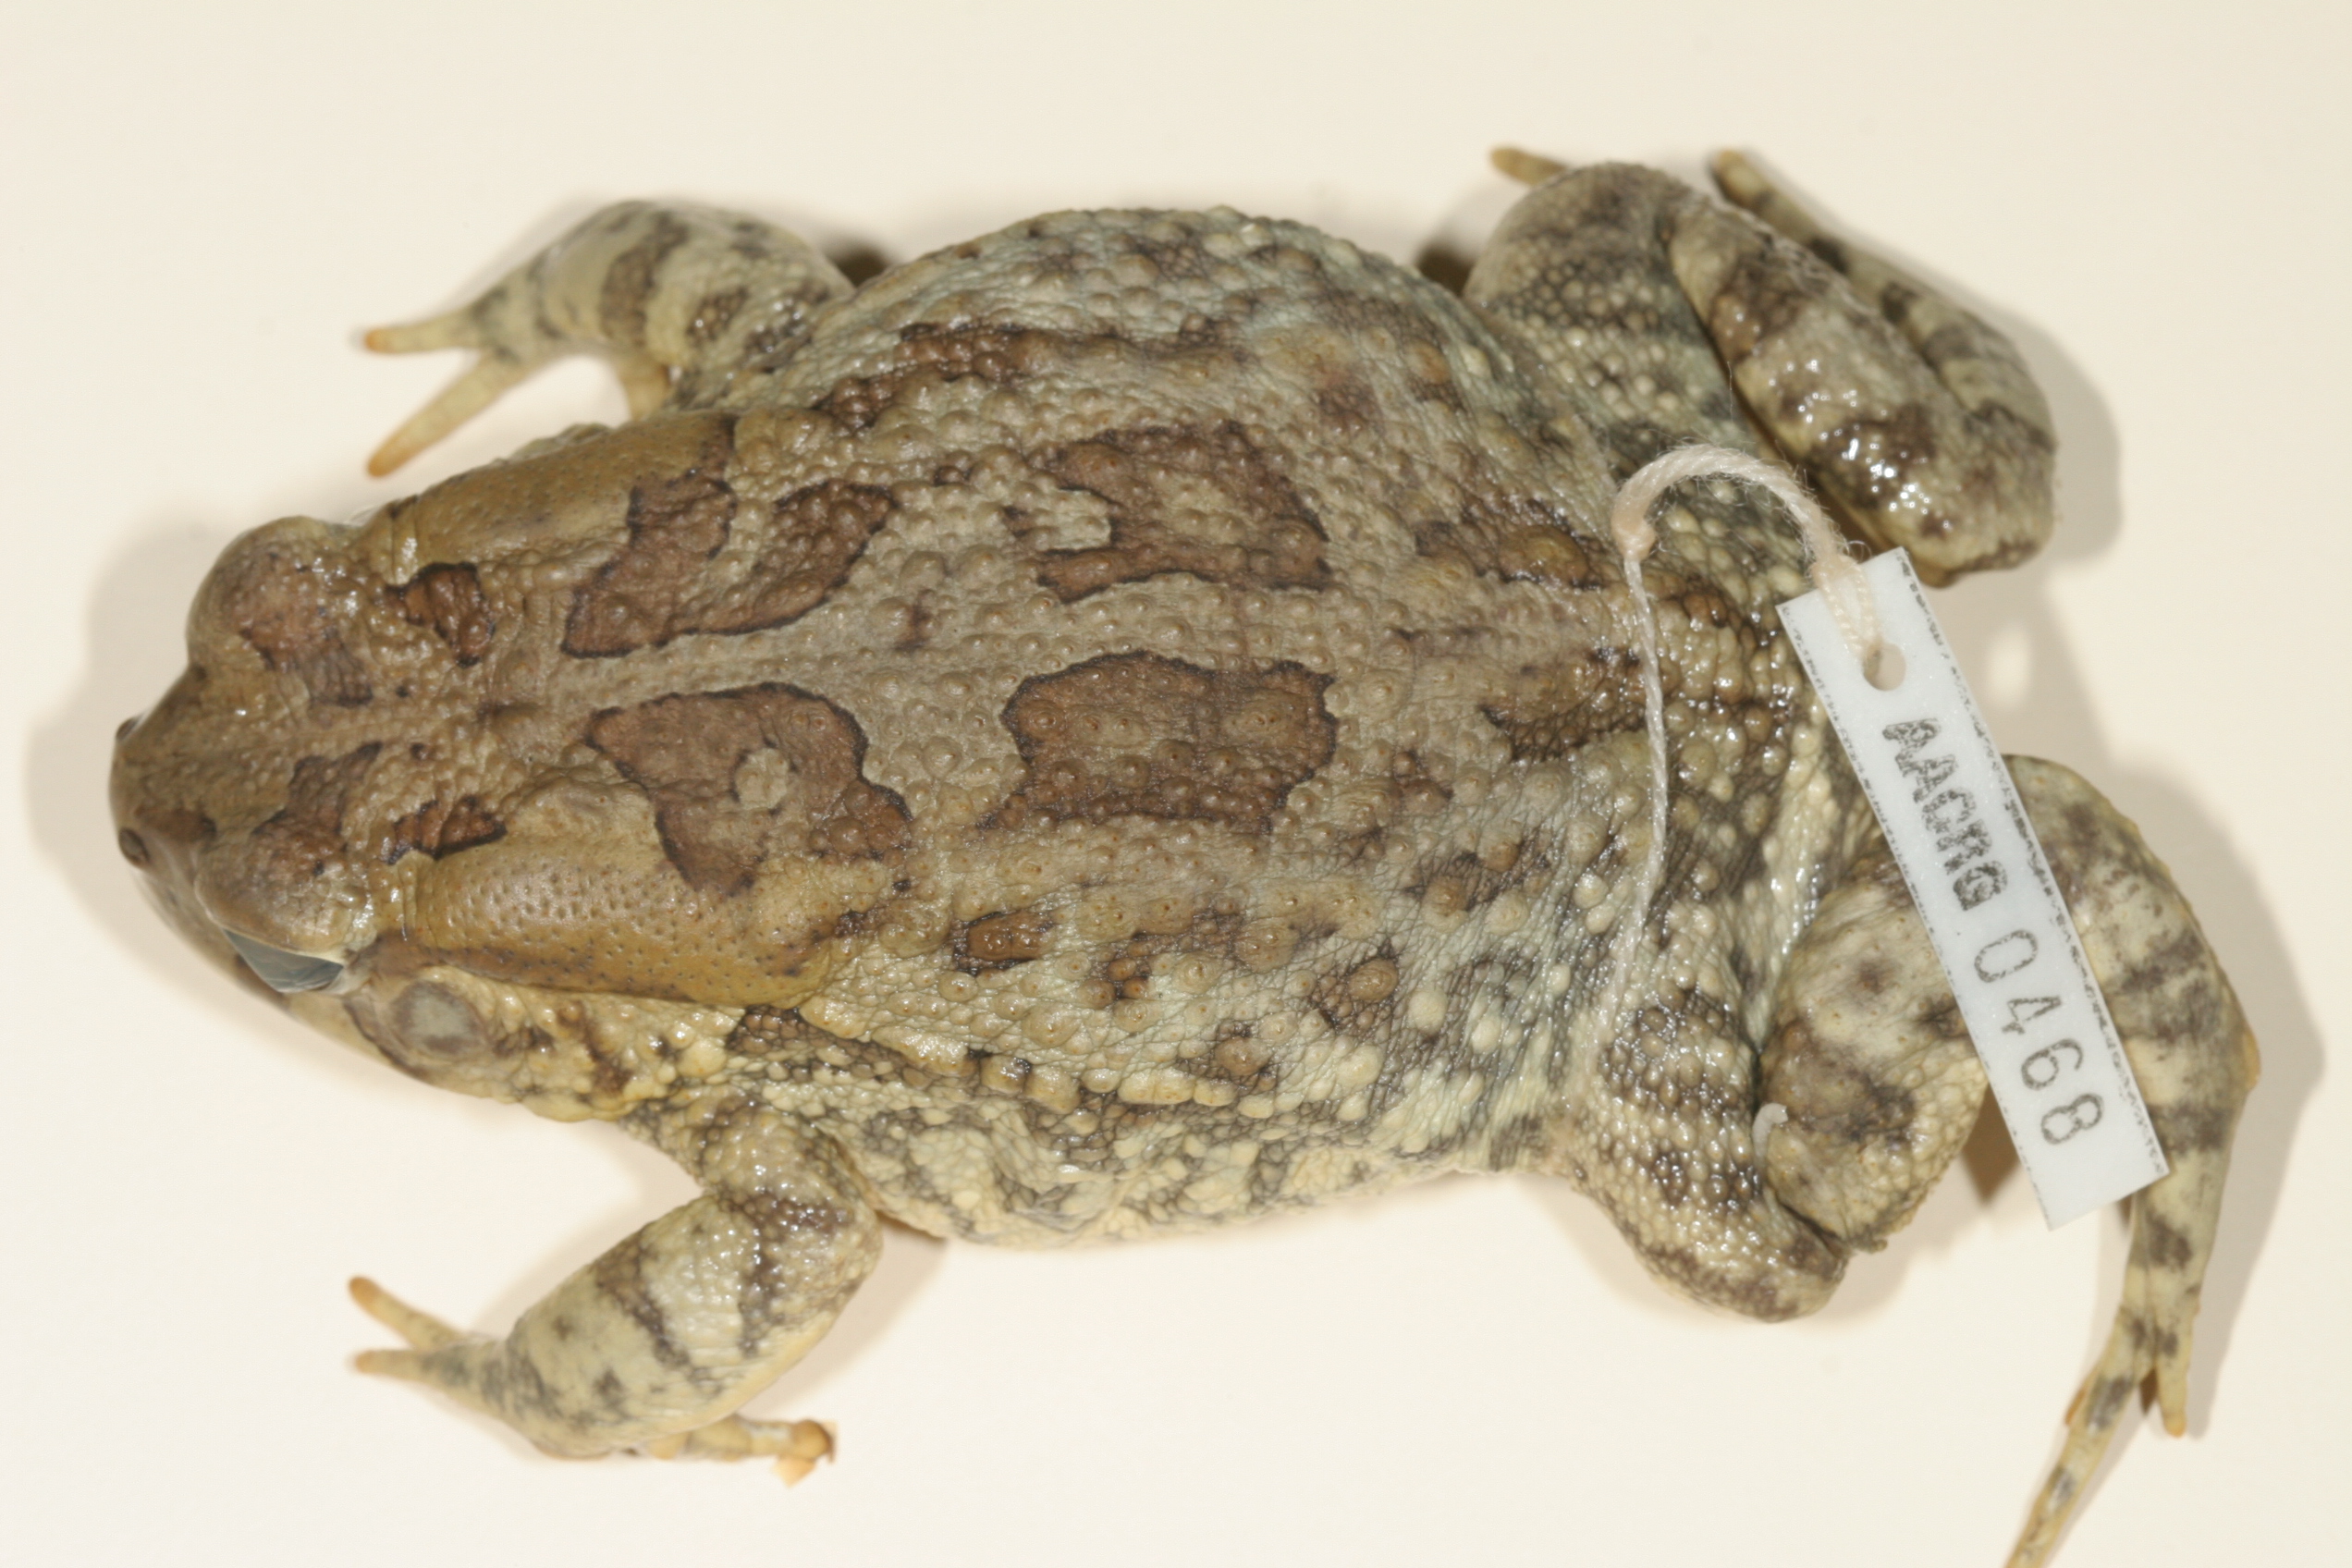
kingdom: Animalia
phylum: Chordata
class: Amphibia
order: Anura
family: Bufonidae
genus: Sclerophrys
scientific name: Sclerophrys poweri
